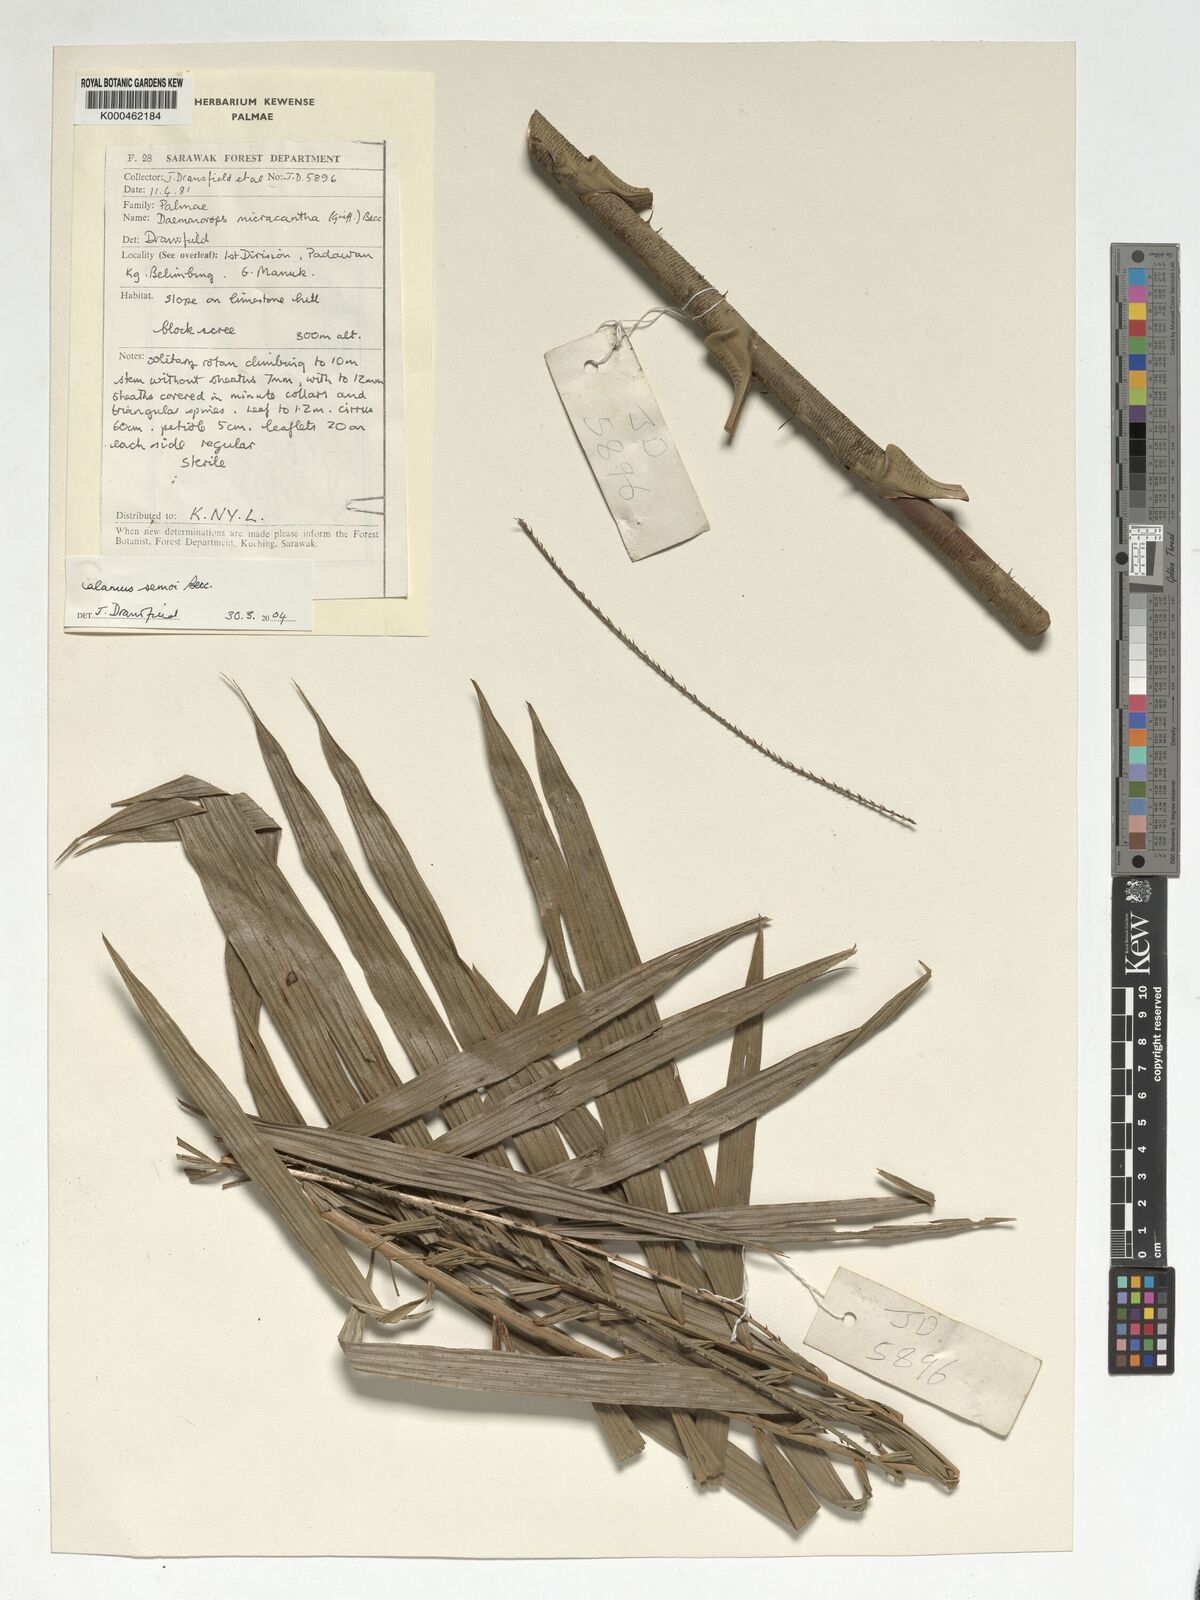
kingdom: Plantae
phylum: Tracheophyta
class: Liliopsida
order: Arecales
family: Arecaceae
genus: Calamus
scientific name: Calamus micracanthus
